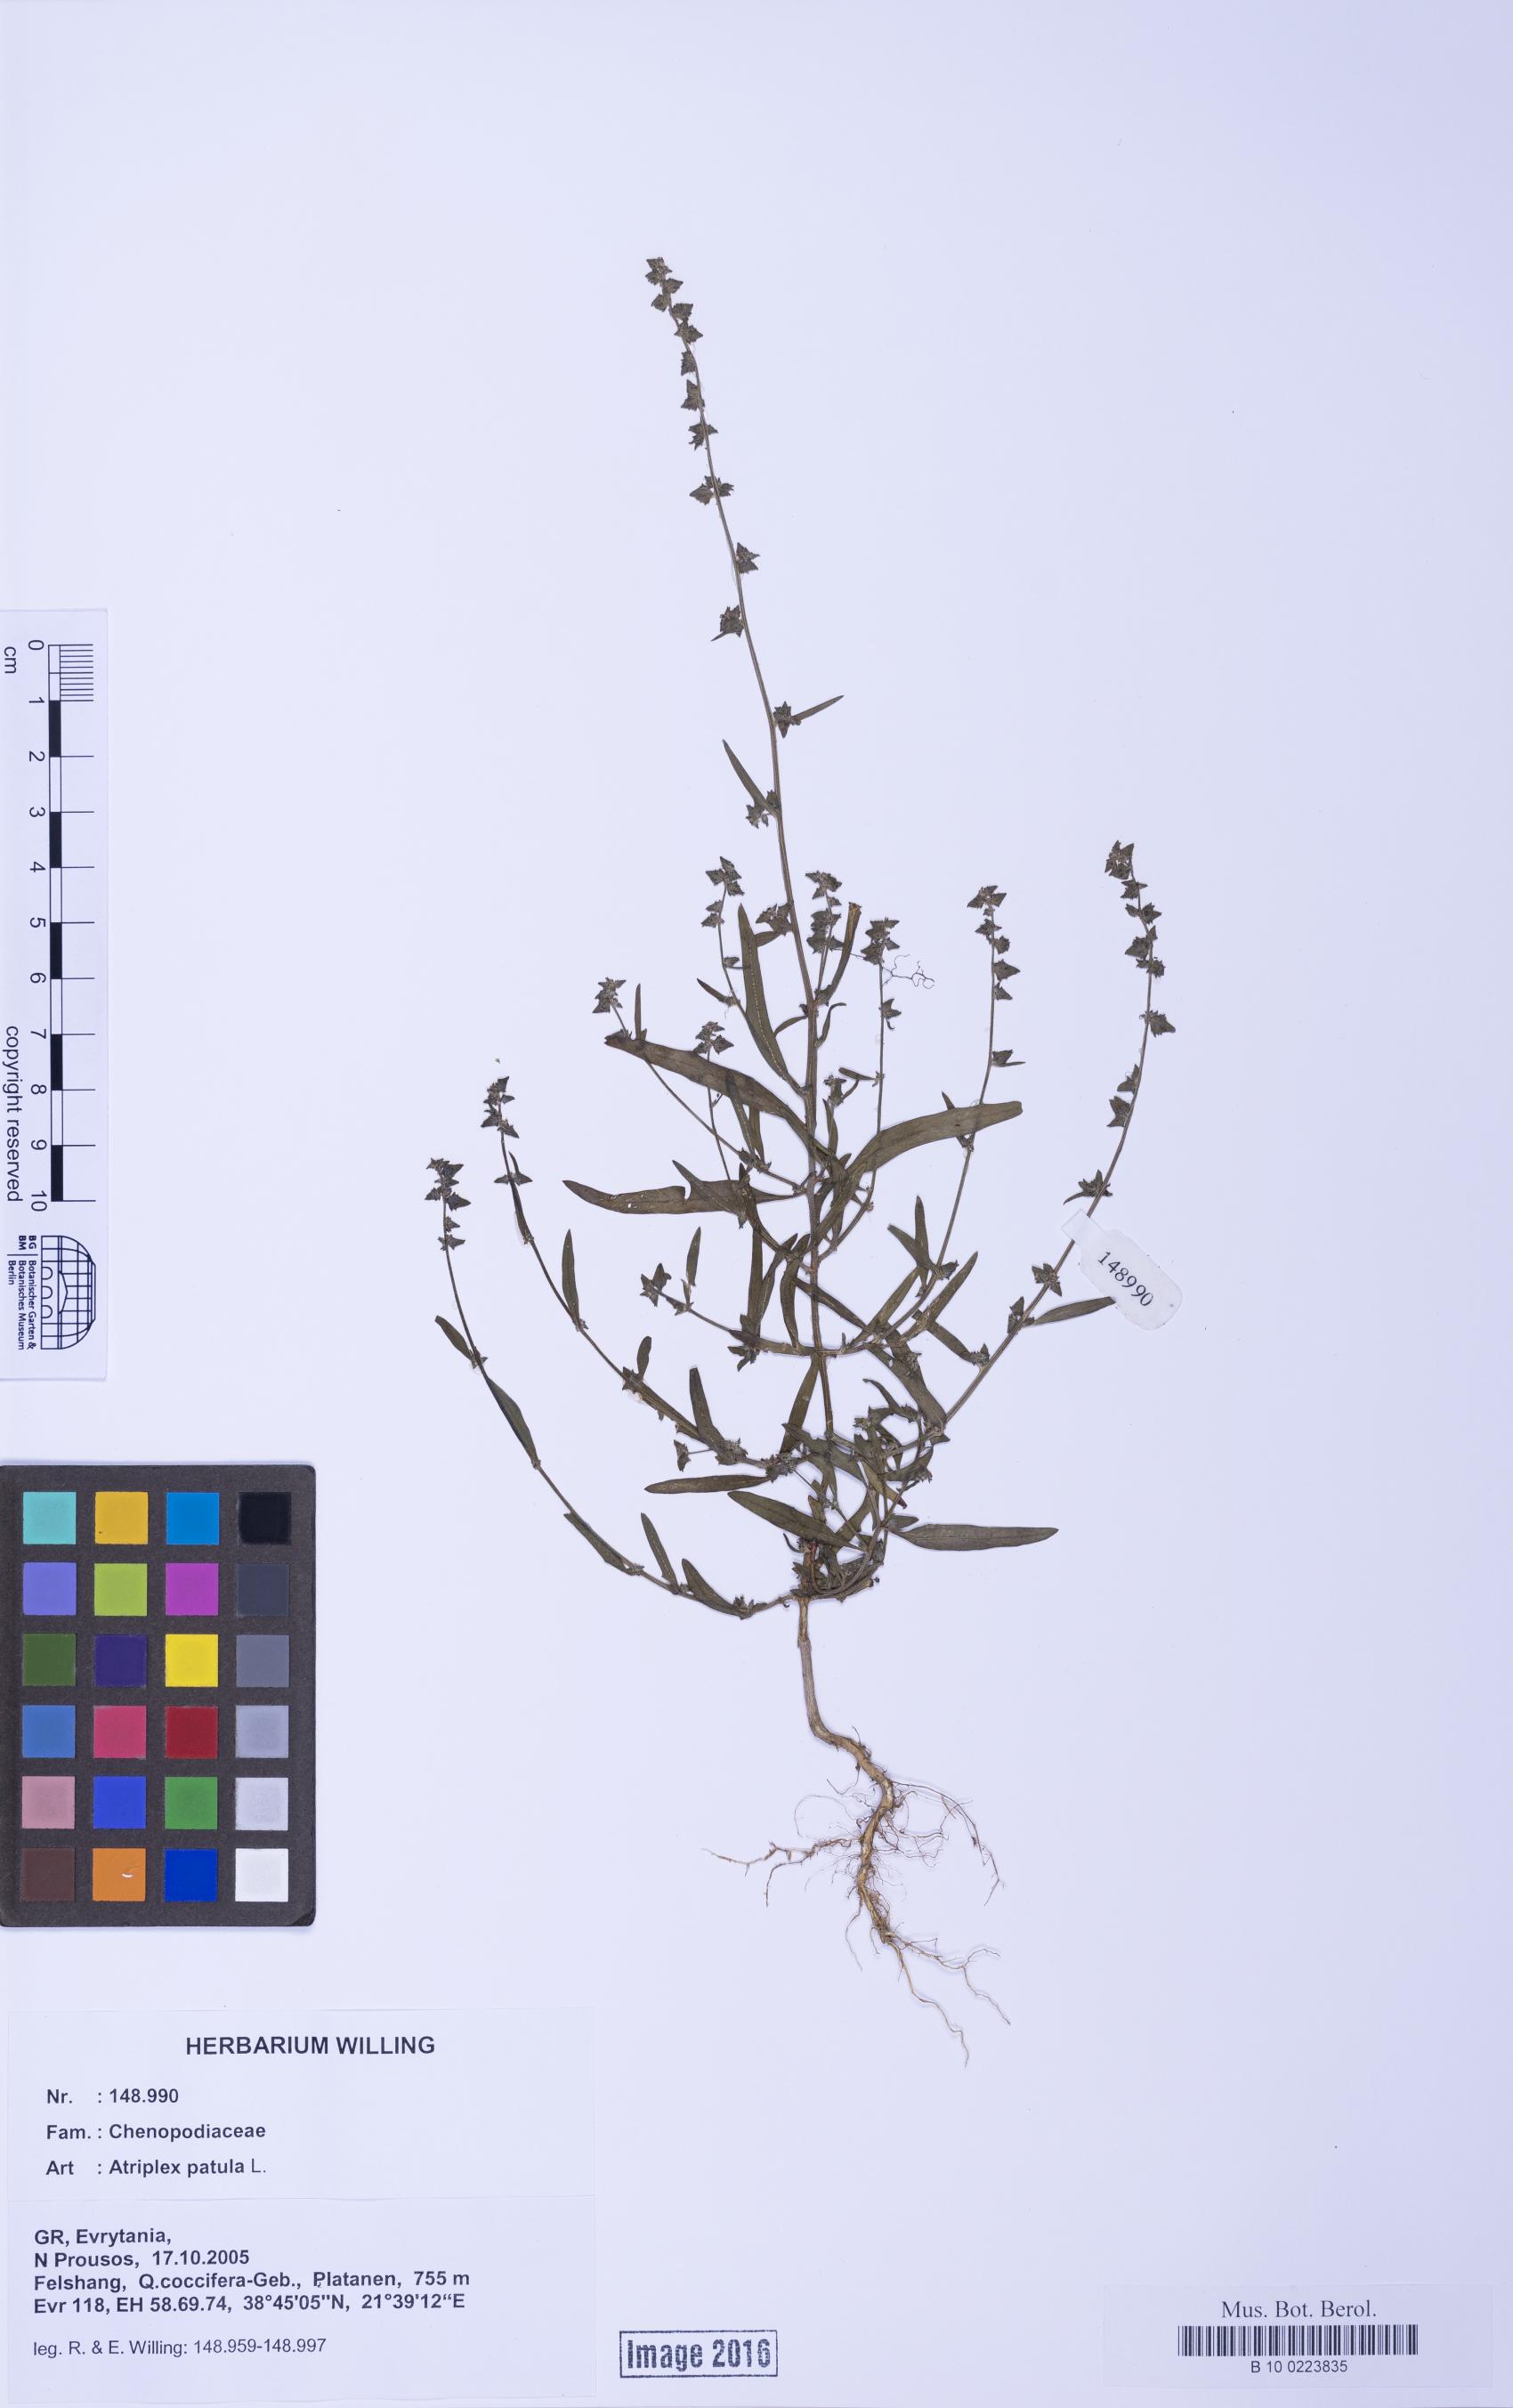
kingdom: Plantae
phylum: Tracheophyta
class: Magnoliopsida
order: Caryophyllales
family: Amaranthaceae
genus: Atriplex
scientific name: Atriplex patula
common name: Common orache
